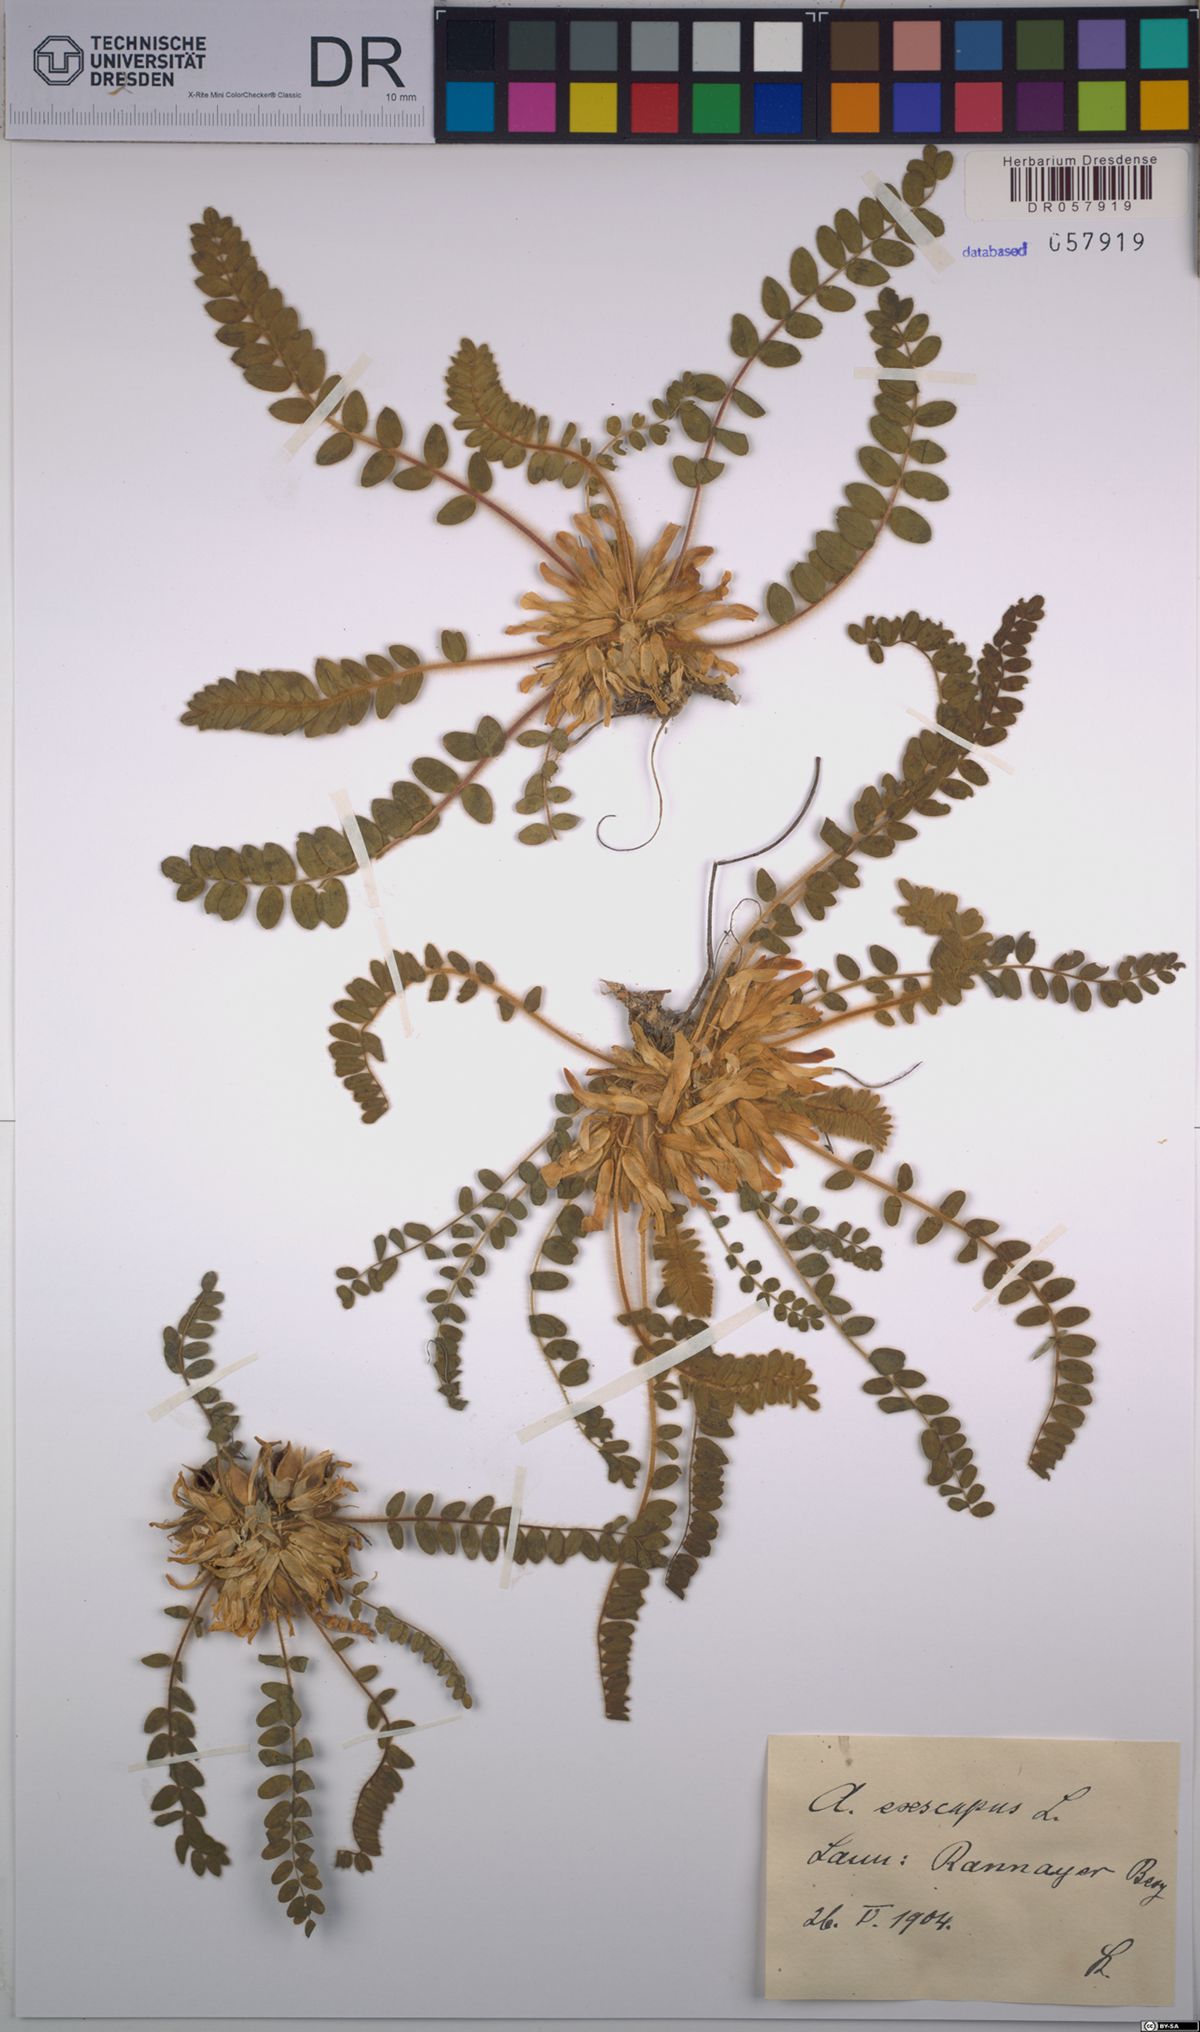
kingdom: Plantae
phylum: Tracheophyta
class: Magnoliopsida
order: Fabales
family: Fabaceae
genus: Astragalus
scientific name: Astragalus exscapus
